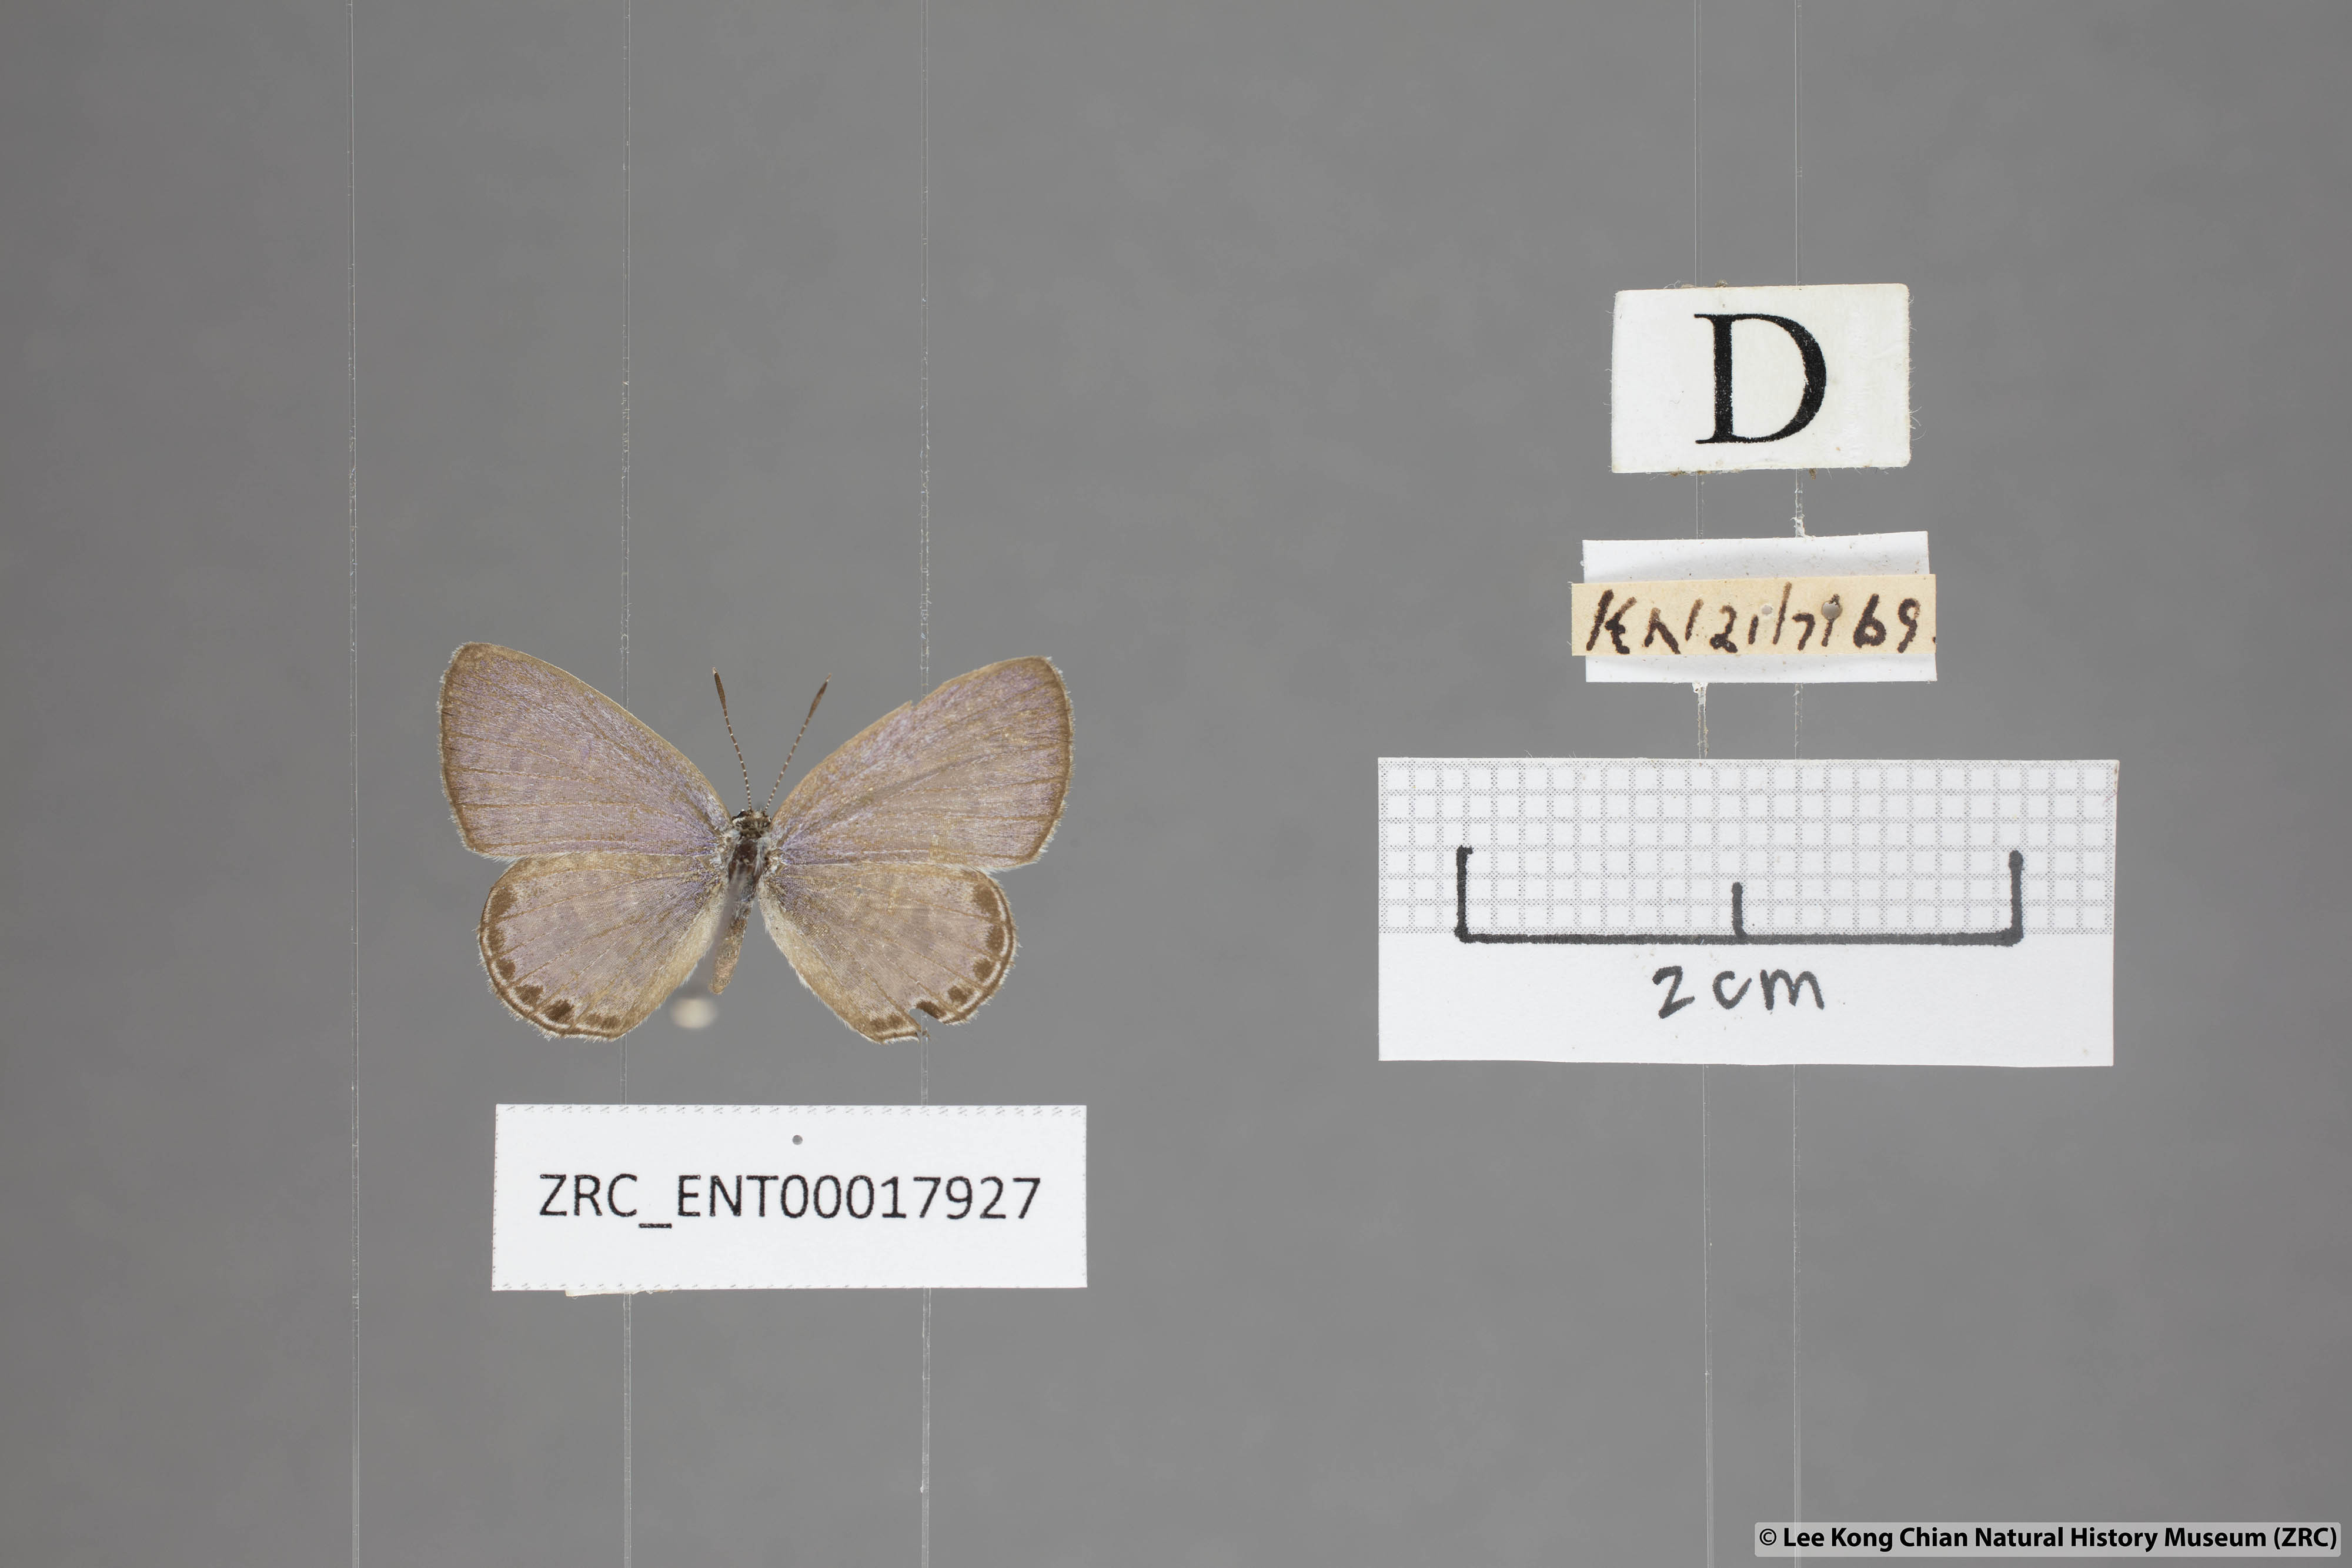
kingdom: Animalia
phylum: Arthropoda
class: Insecta
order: Lepidoptera
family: Lycaenidae
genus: Chilades
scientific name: Chilades laius
